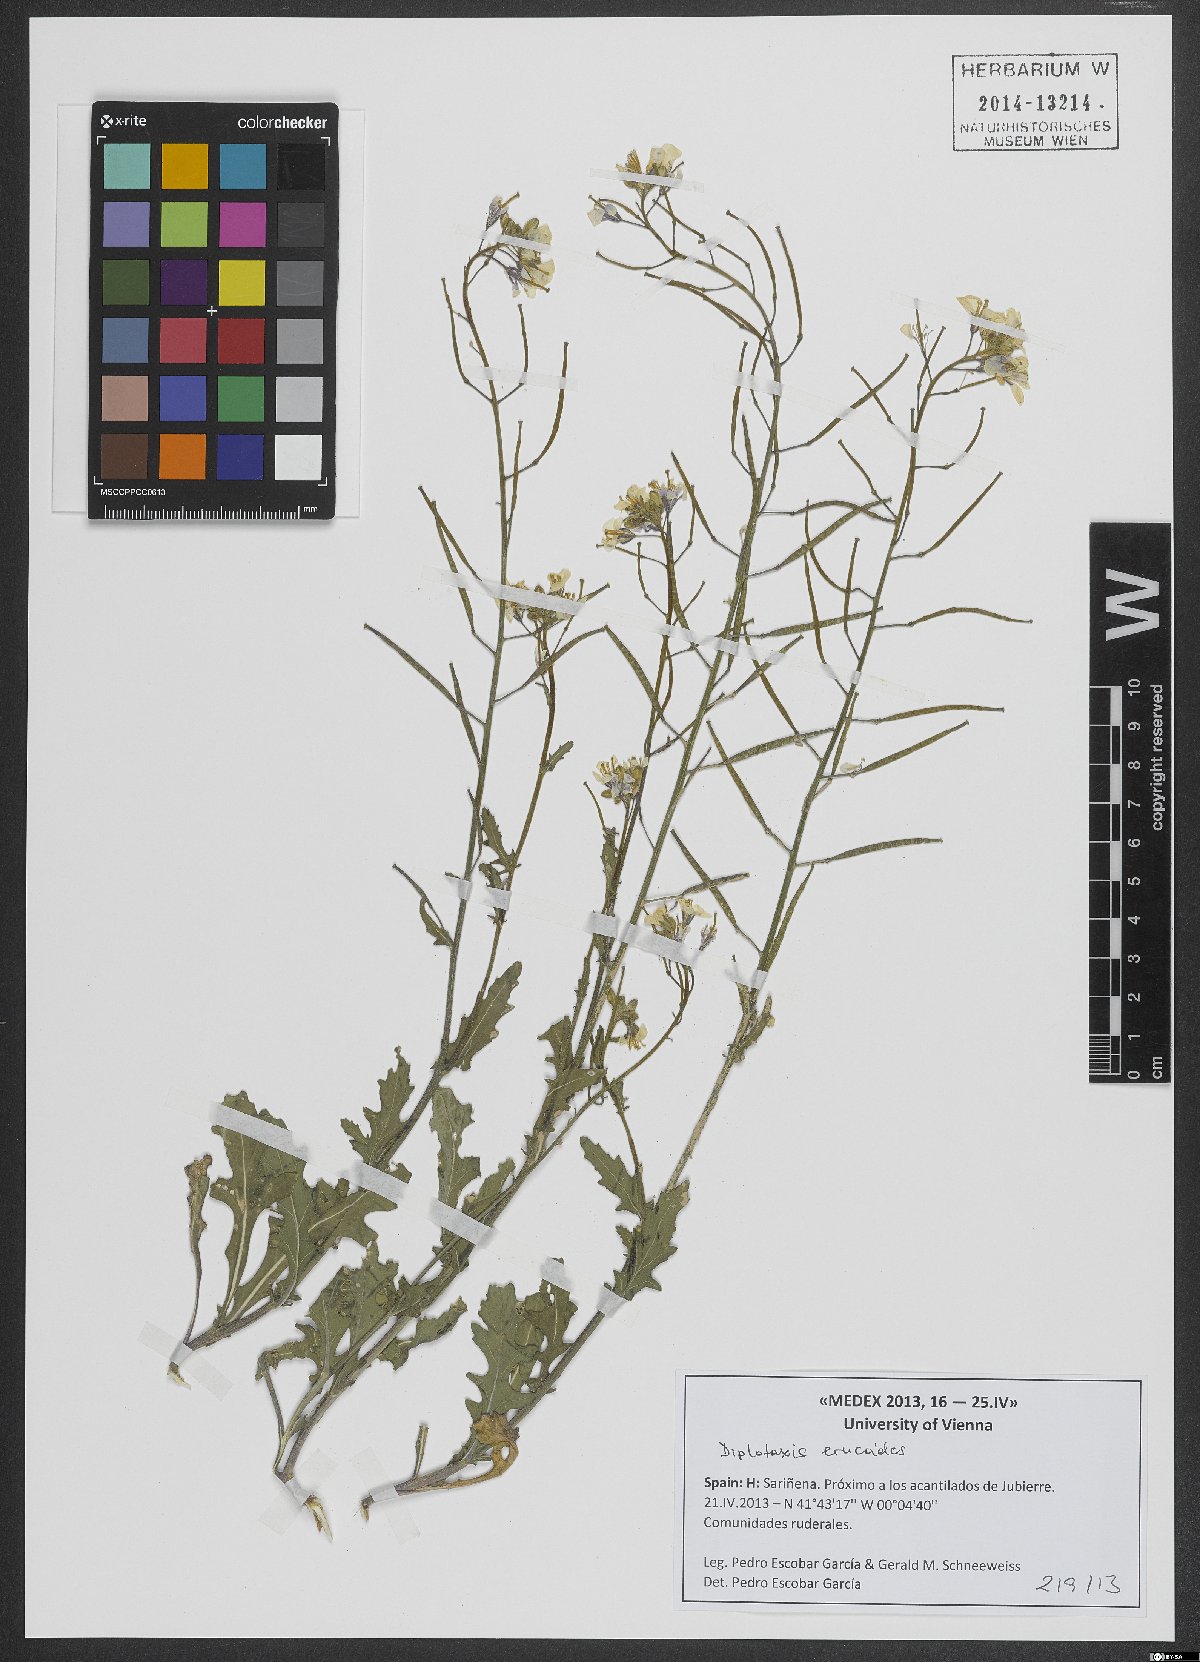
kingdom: Plantae
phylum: Tracheophyta
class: Magnoliopsida
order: Brassicales
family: Brassicaceae
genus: Diplotaxis
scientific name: Diplotaxis erucoides
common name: White rocket
